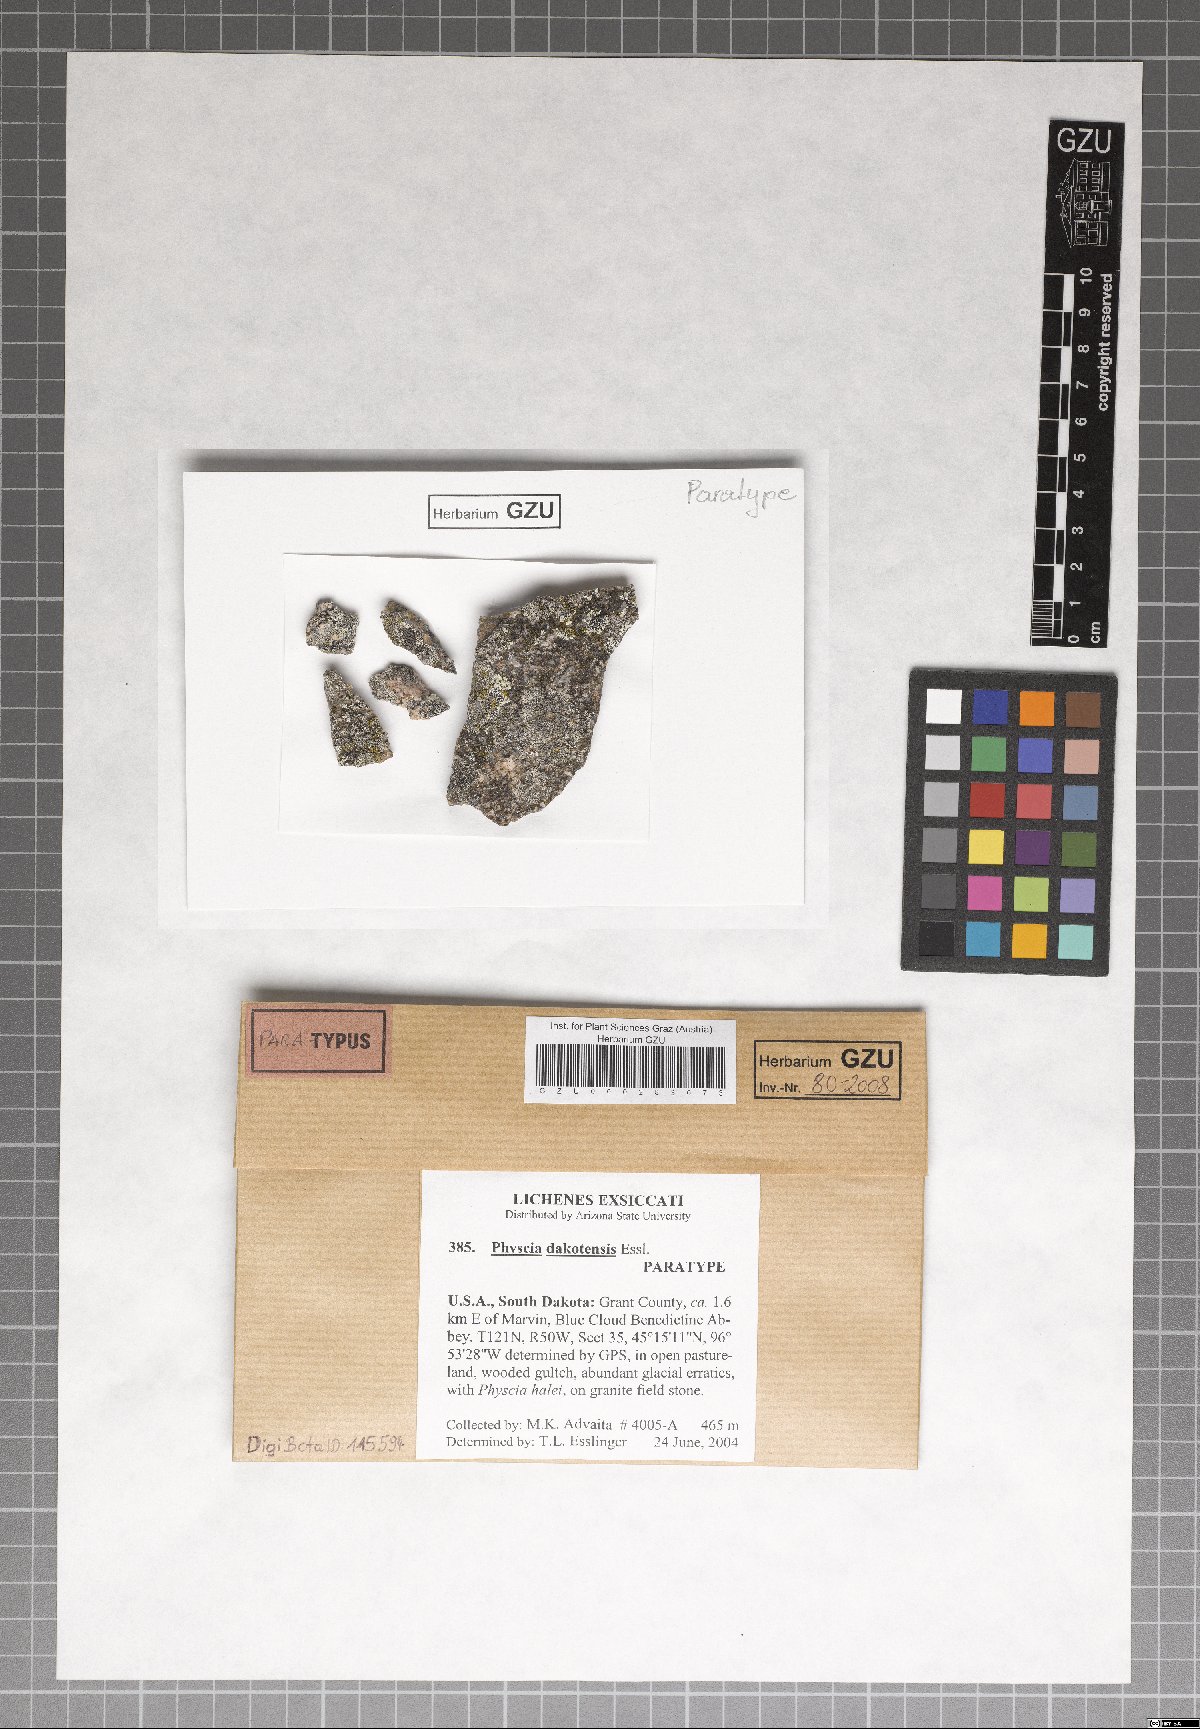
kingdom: Fungi
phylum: Ascomycota
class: Lecanoromycetes
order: Caliciales
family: Physciaceae
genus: Physcia
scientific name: Physcia dakotensis
